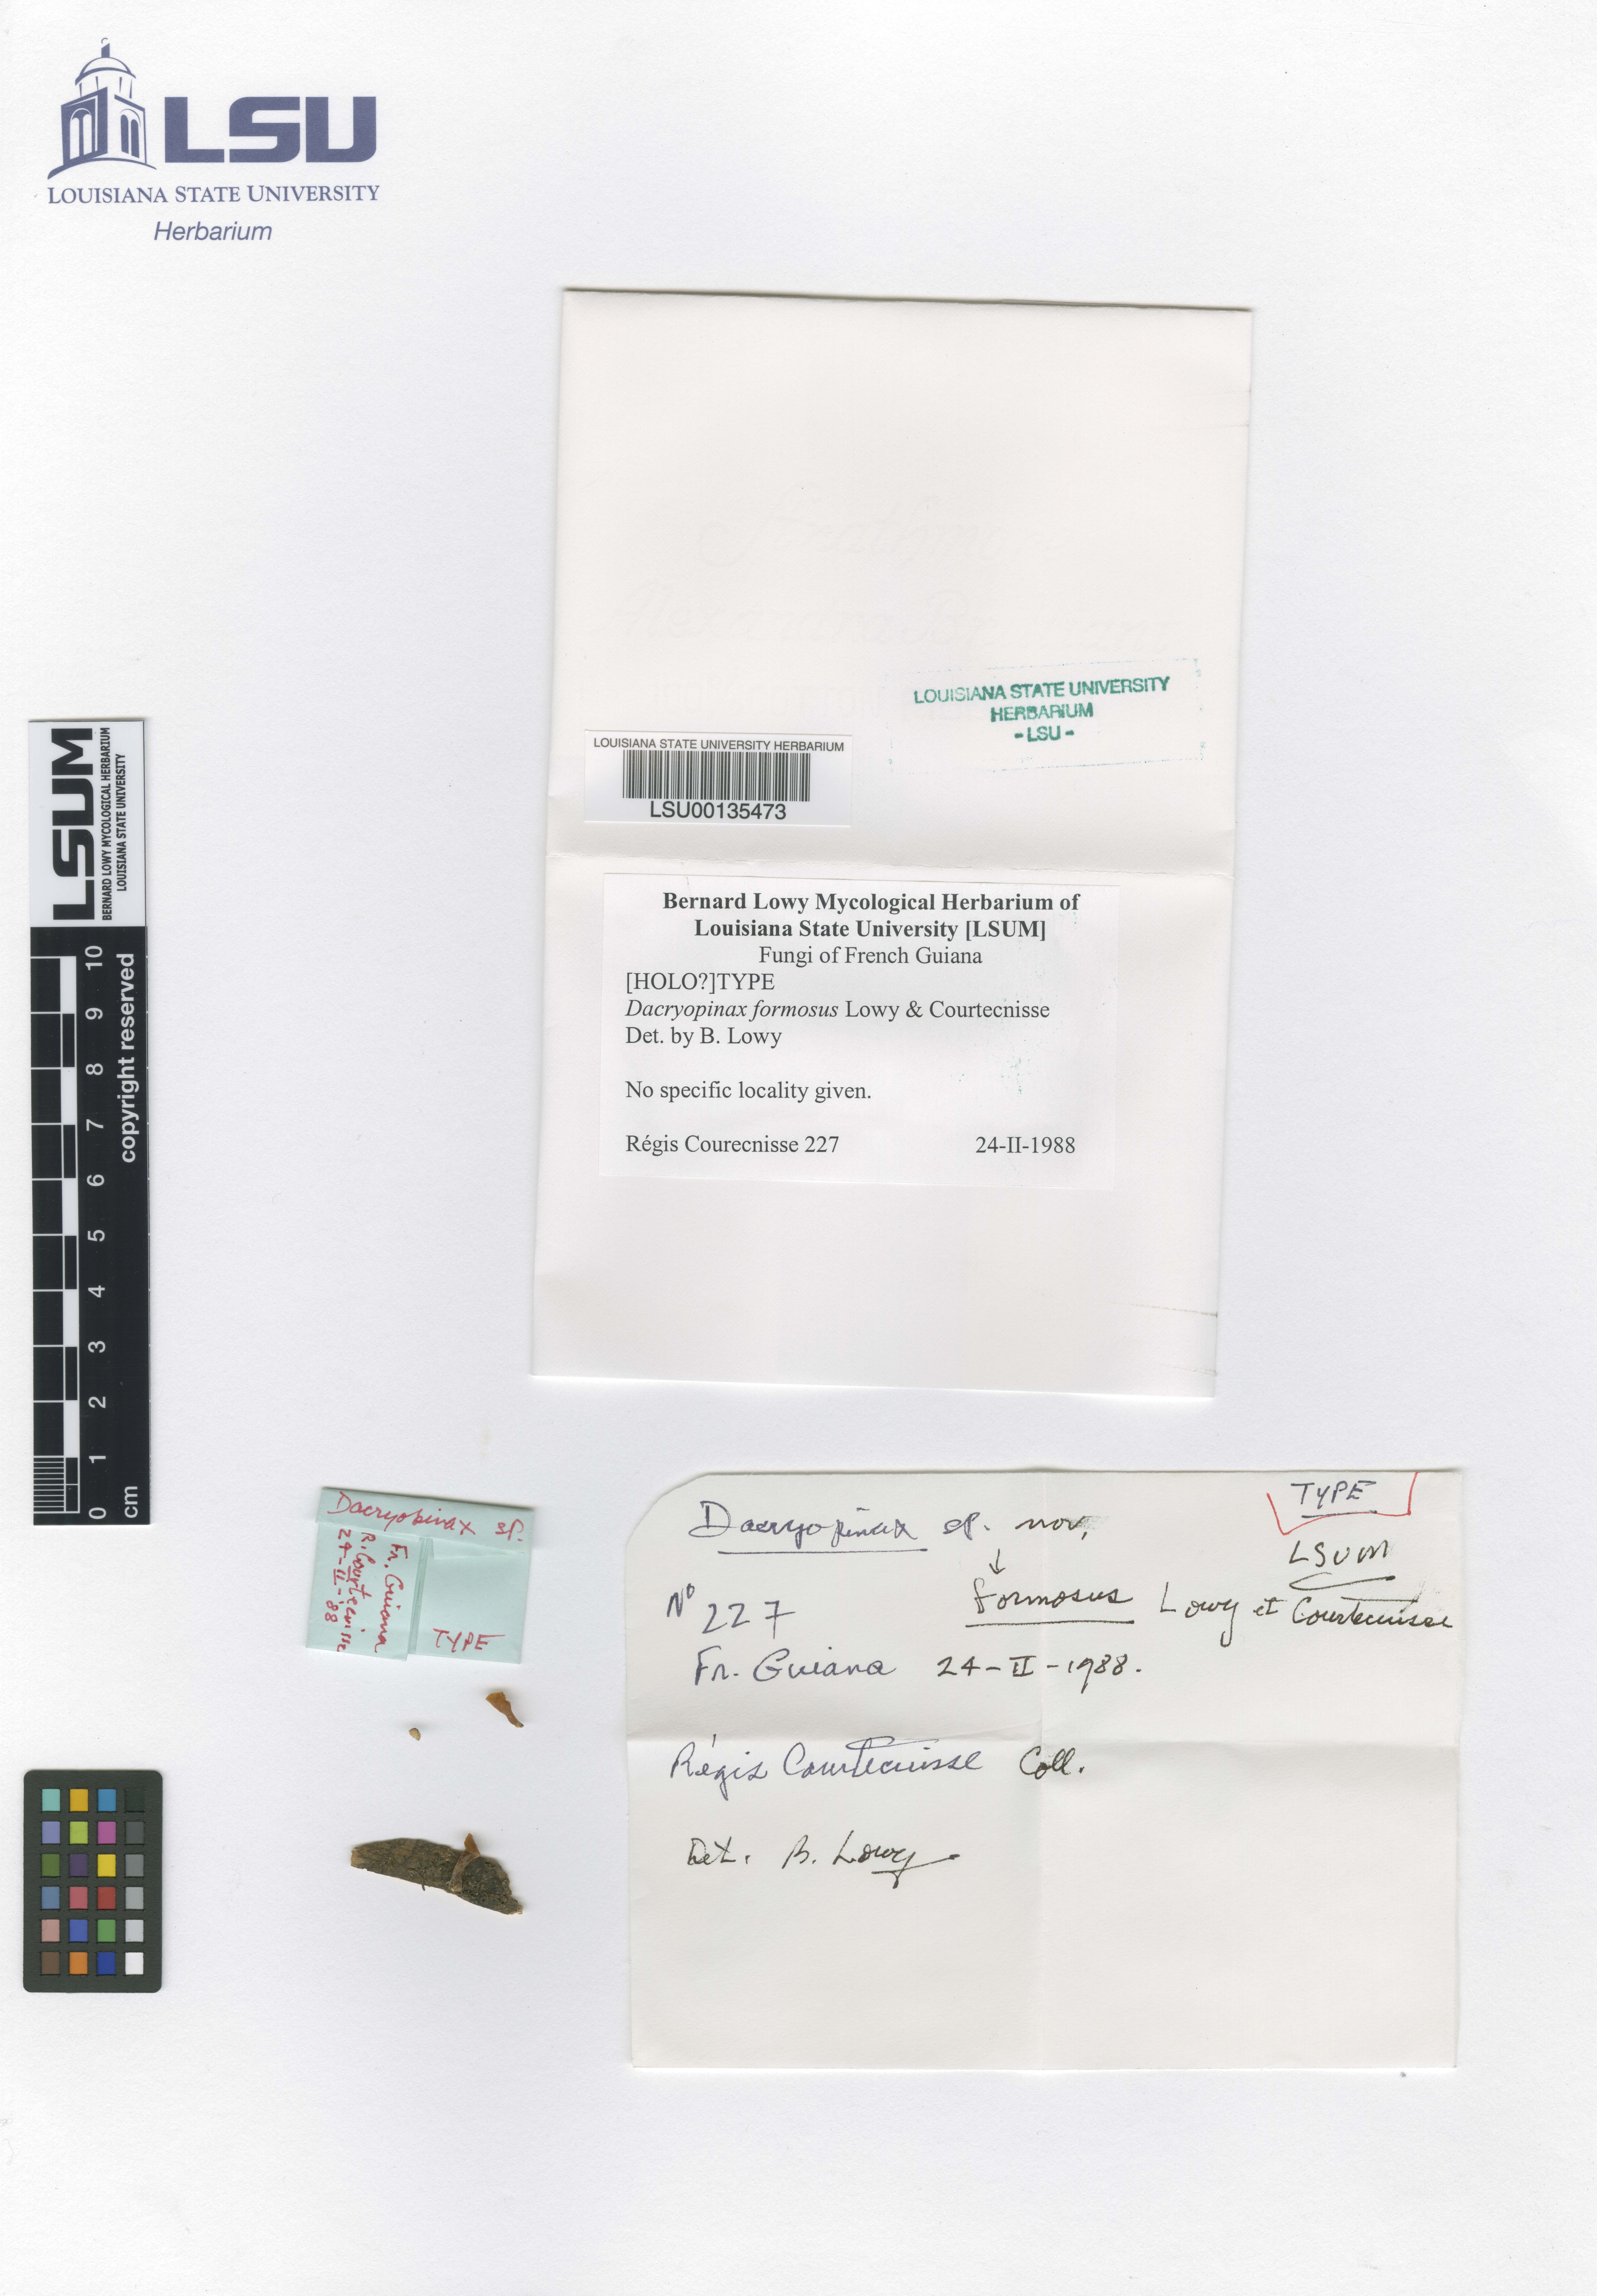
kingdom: Fungi
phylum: Basidiomycota
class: Dacrymycetes
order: Dacrymycetales
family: Dacrymycetaceae
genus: Dacryopinax
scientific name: Dacryopinax formosus
